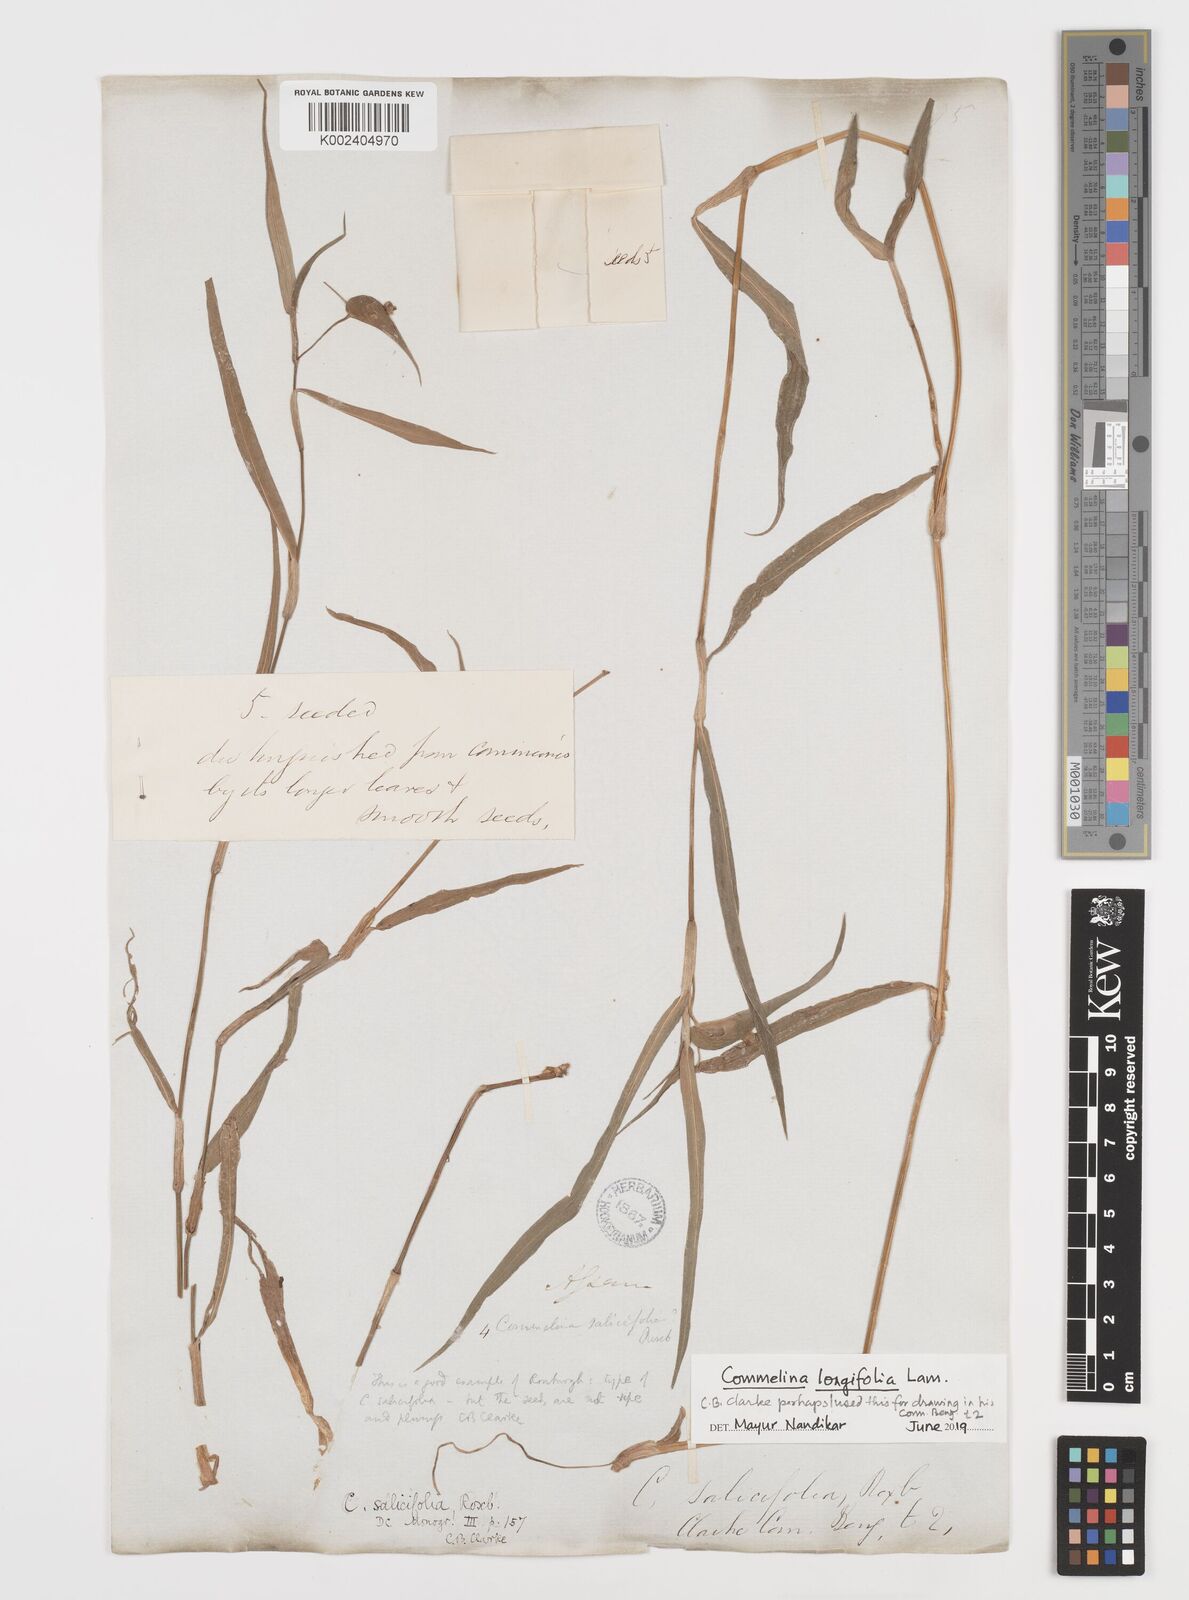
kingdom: Plantae
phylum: Tracheophyta
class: Liliopsida
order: Commelinales
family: Commelinaceae
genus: Commelina
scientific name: Commelina undulata
